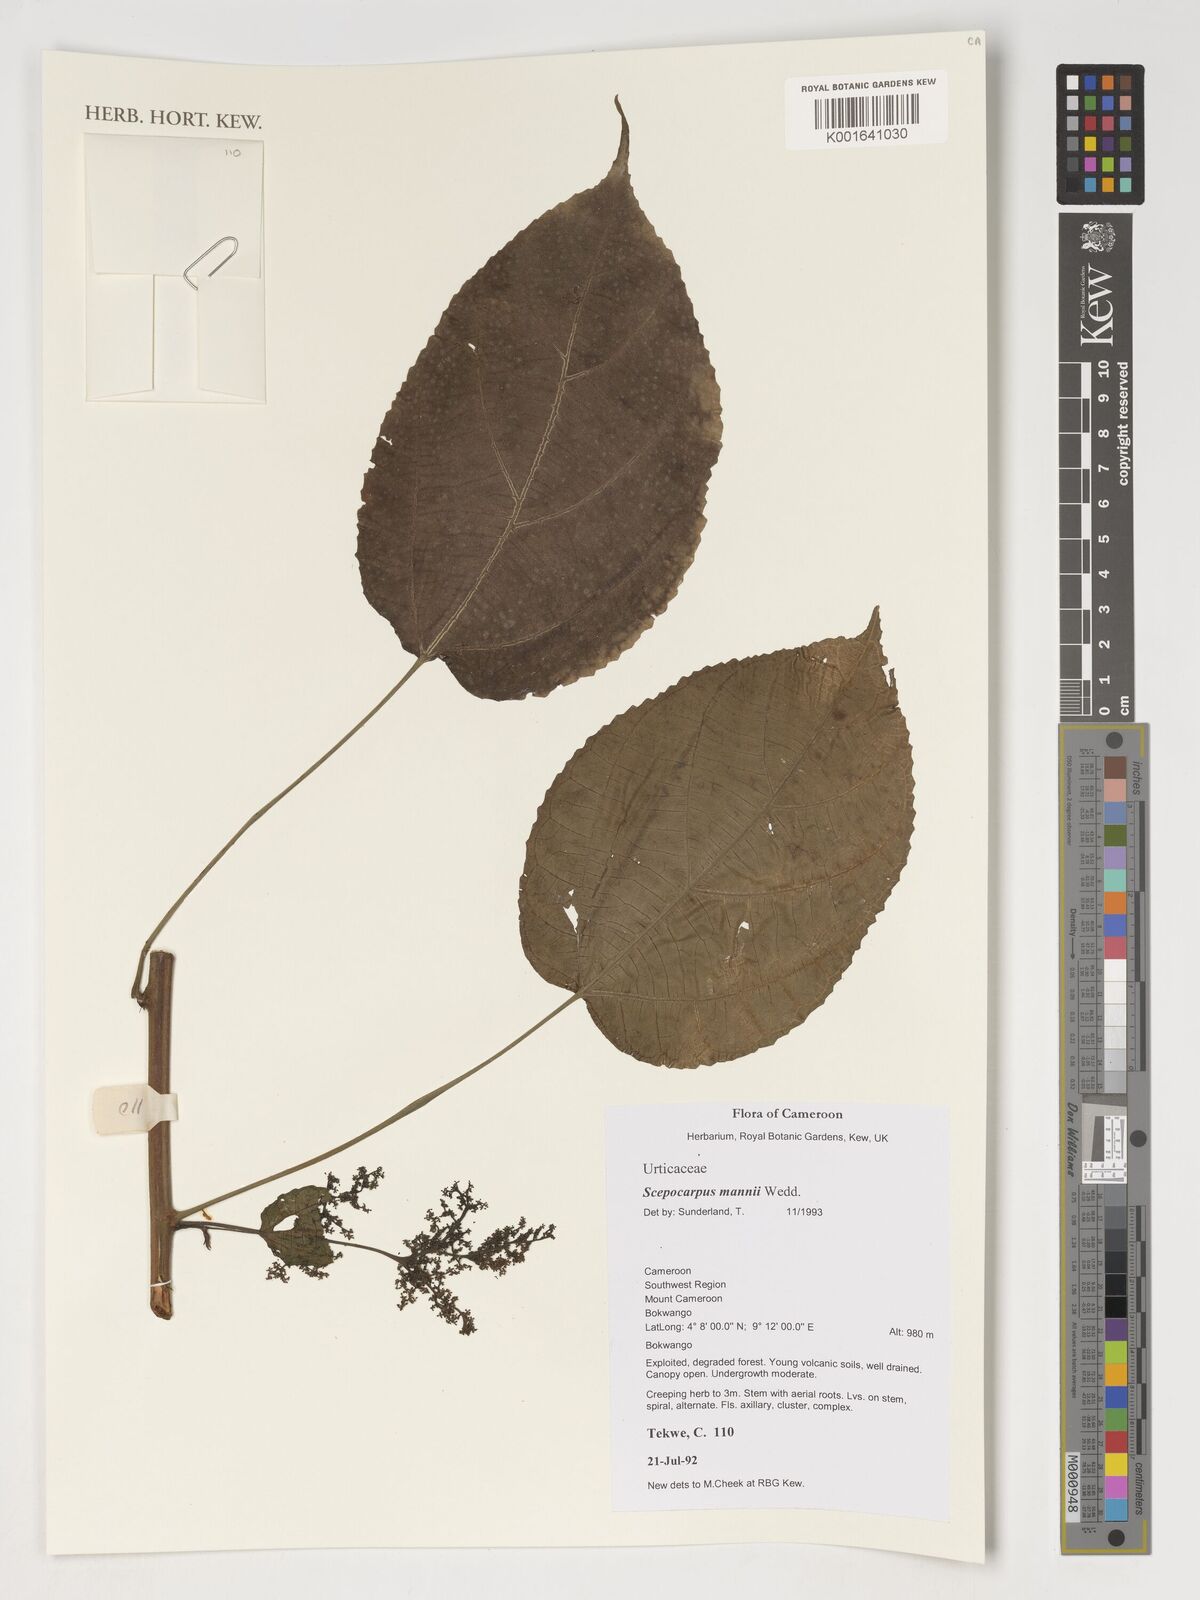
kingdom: Plantae
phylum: Tracheophyta
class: Magnoliopsida
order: Rosales
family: Urticaceae
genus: Scepocarpus
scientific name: Scepocarpus mannii
